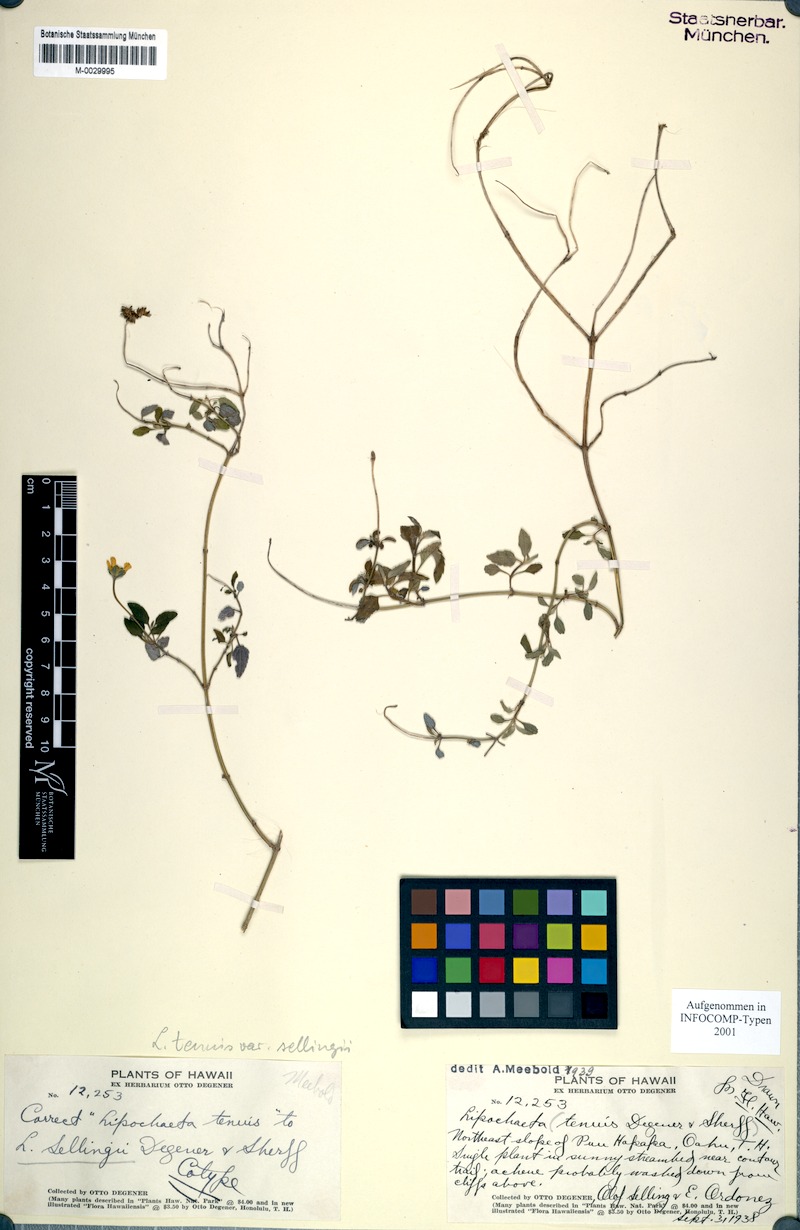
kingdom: Plantae
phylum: Tracheophyta
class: Magnoliopsida
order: Asterales
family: Asteraceae
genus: Lipochaeta
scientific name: Lipochaeta tenuis
